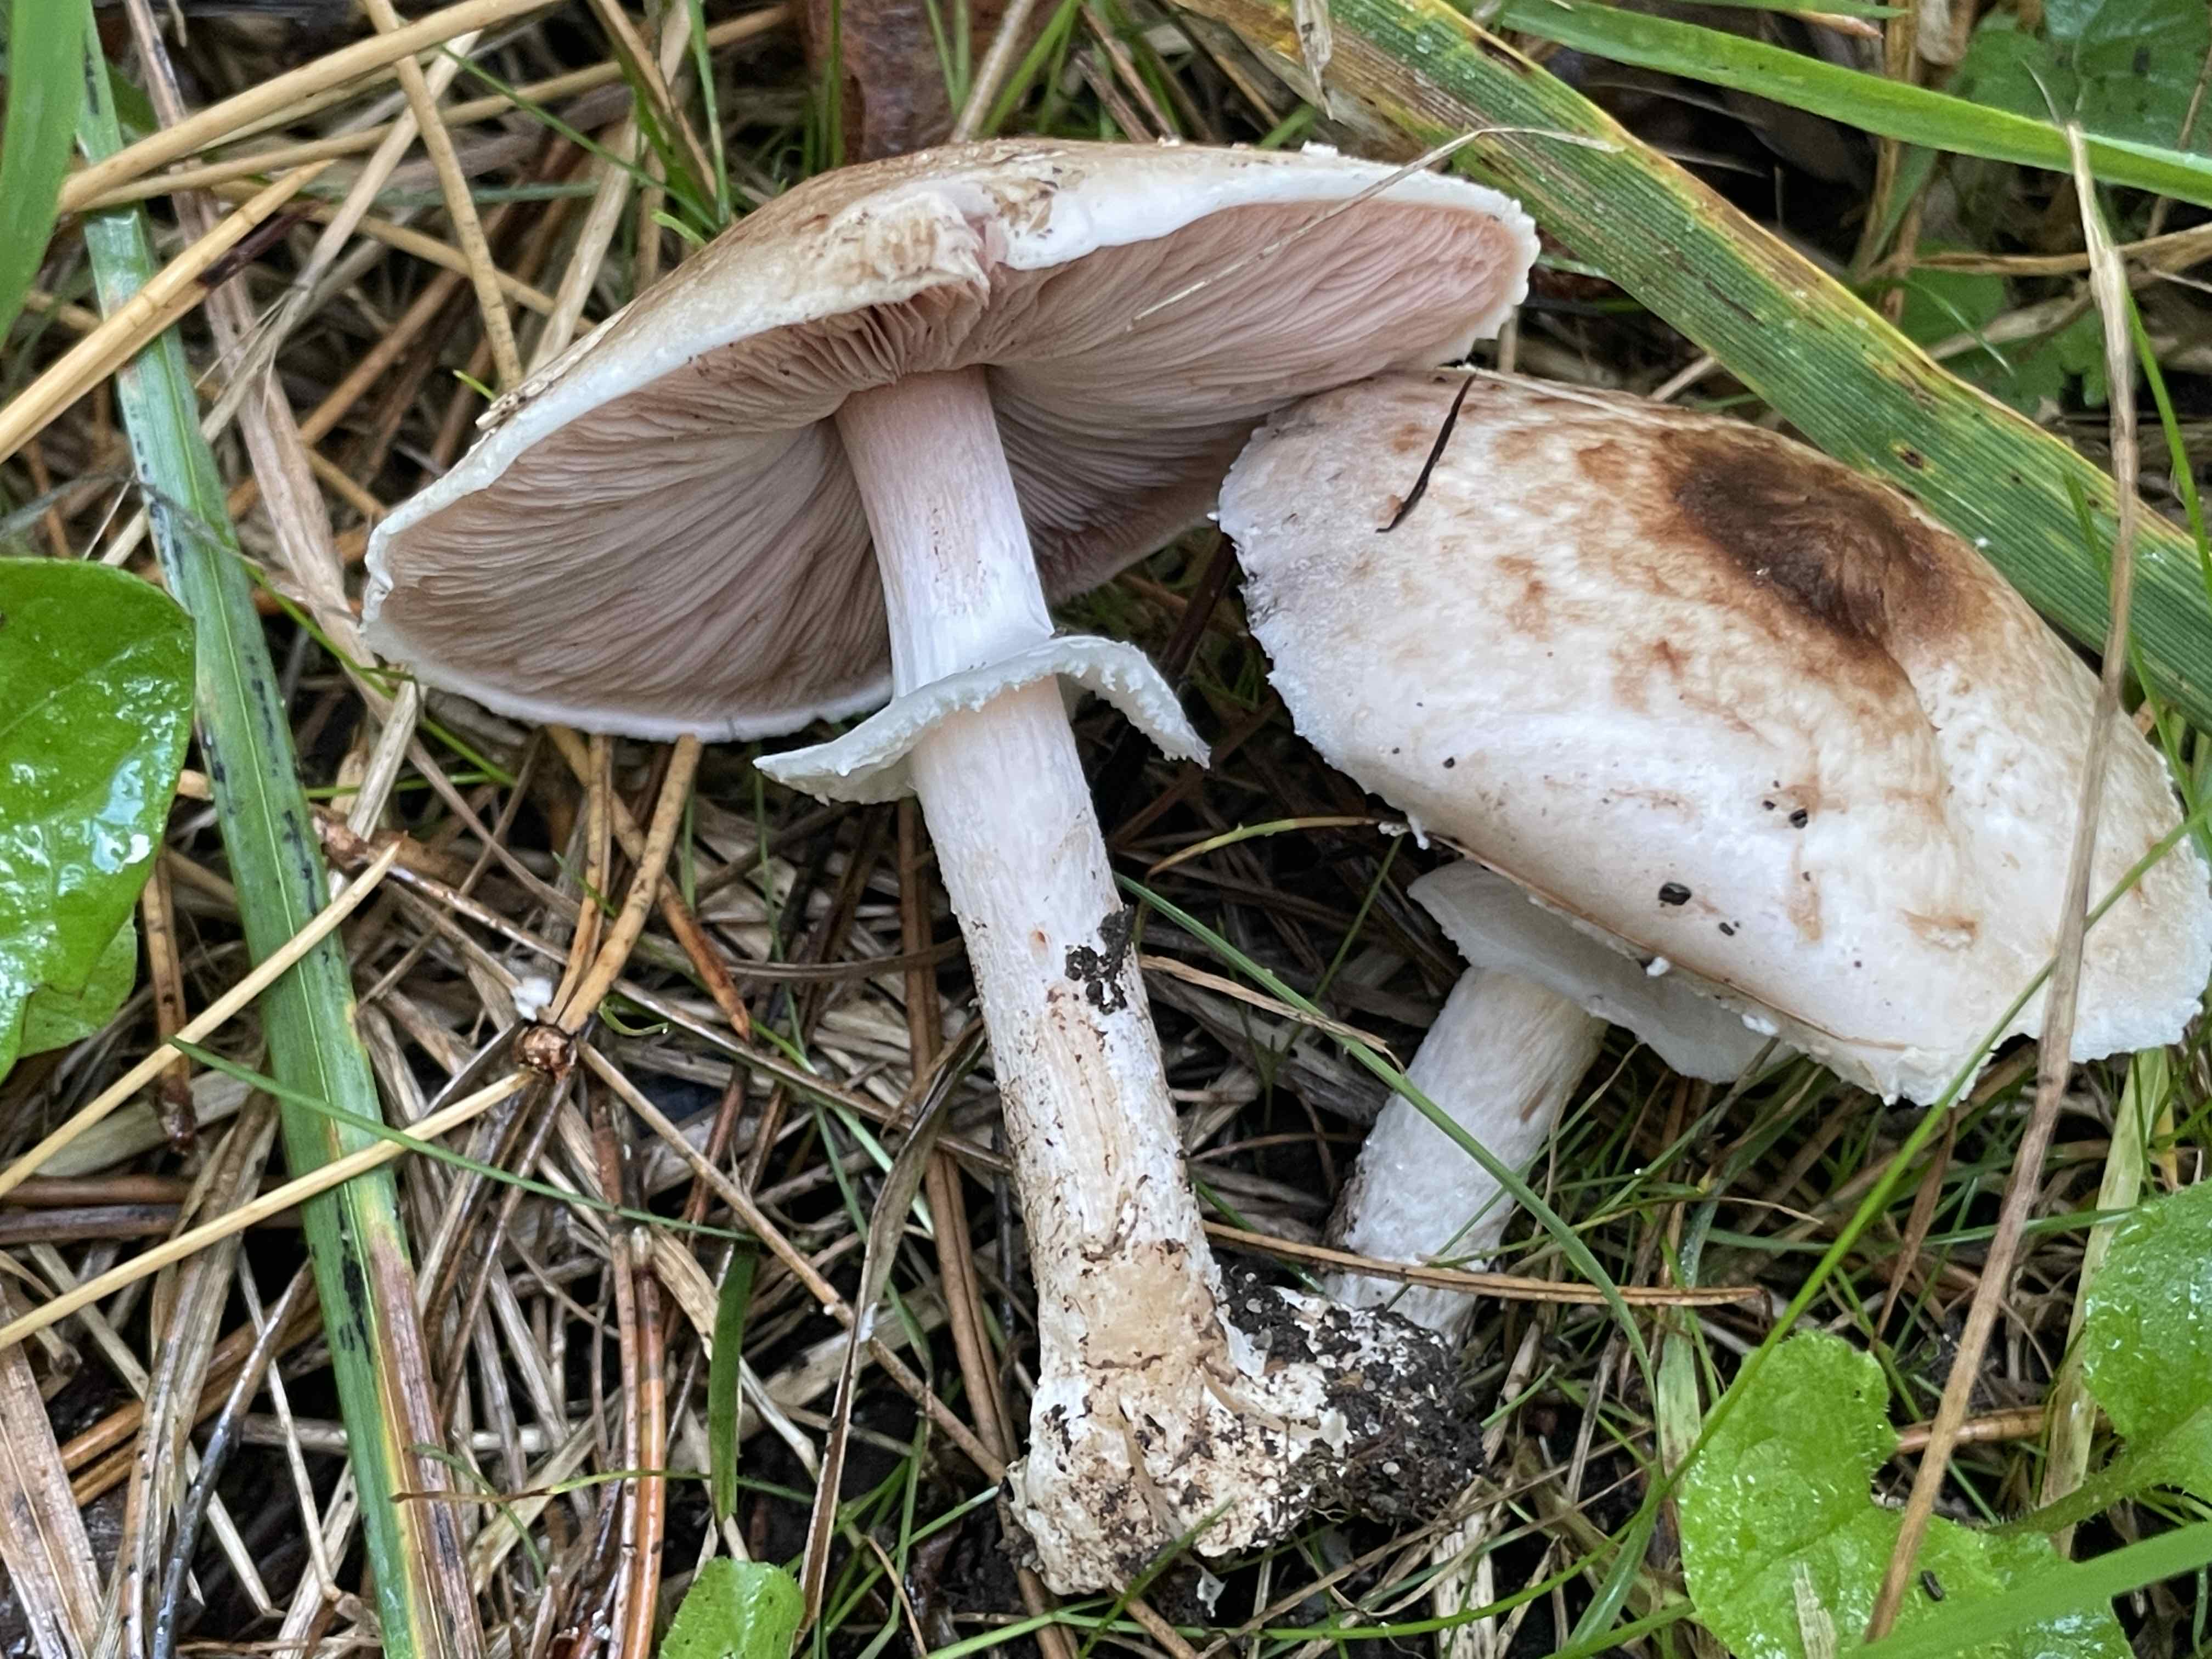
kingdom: Fungi
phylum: Basidiomycota
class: Agaricomycetes
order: Agaricales
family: Agaricaceae
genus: Agaricus
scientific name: Agaricus impudicus
